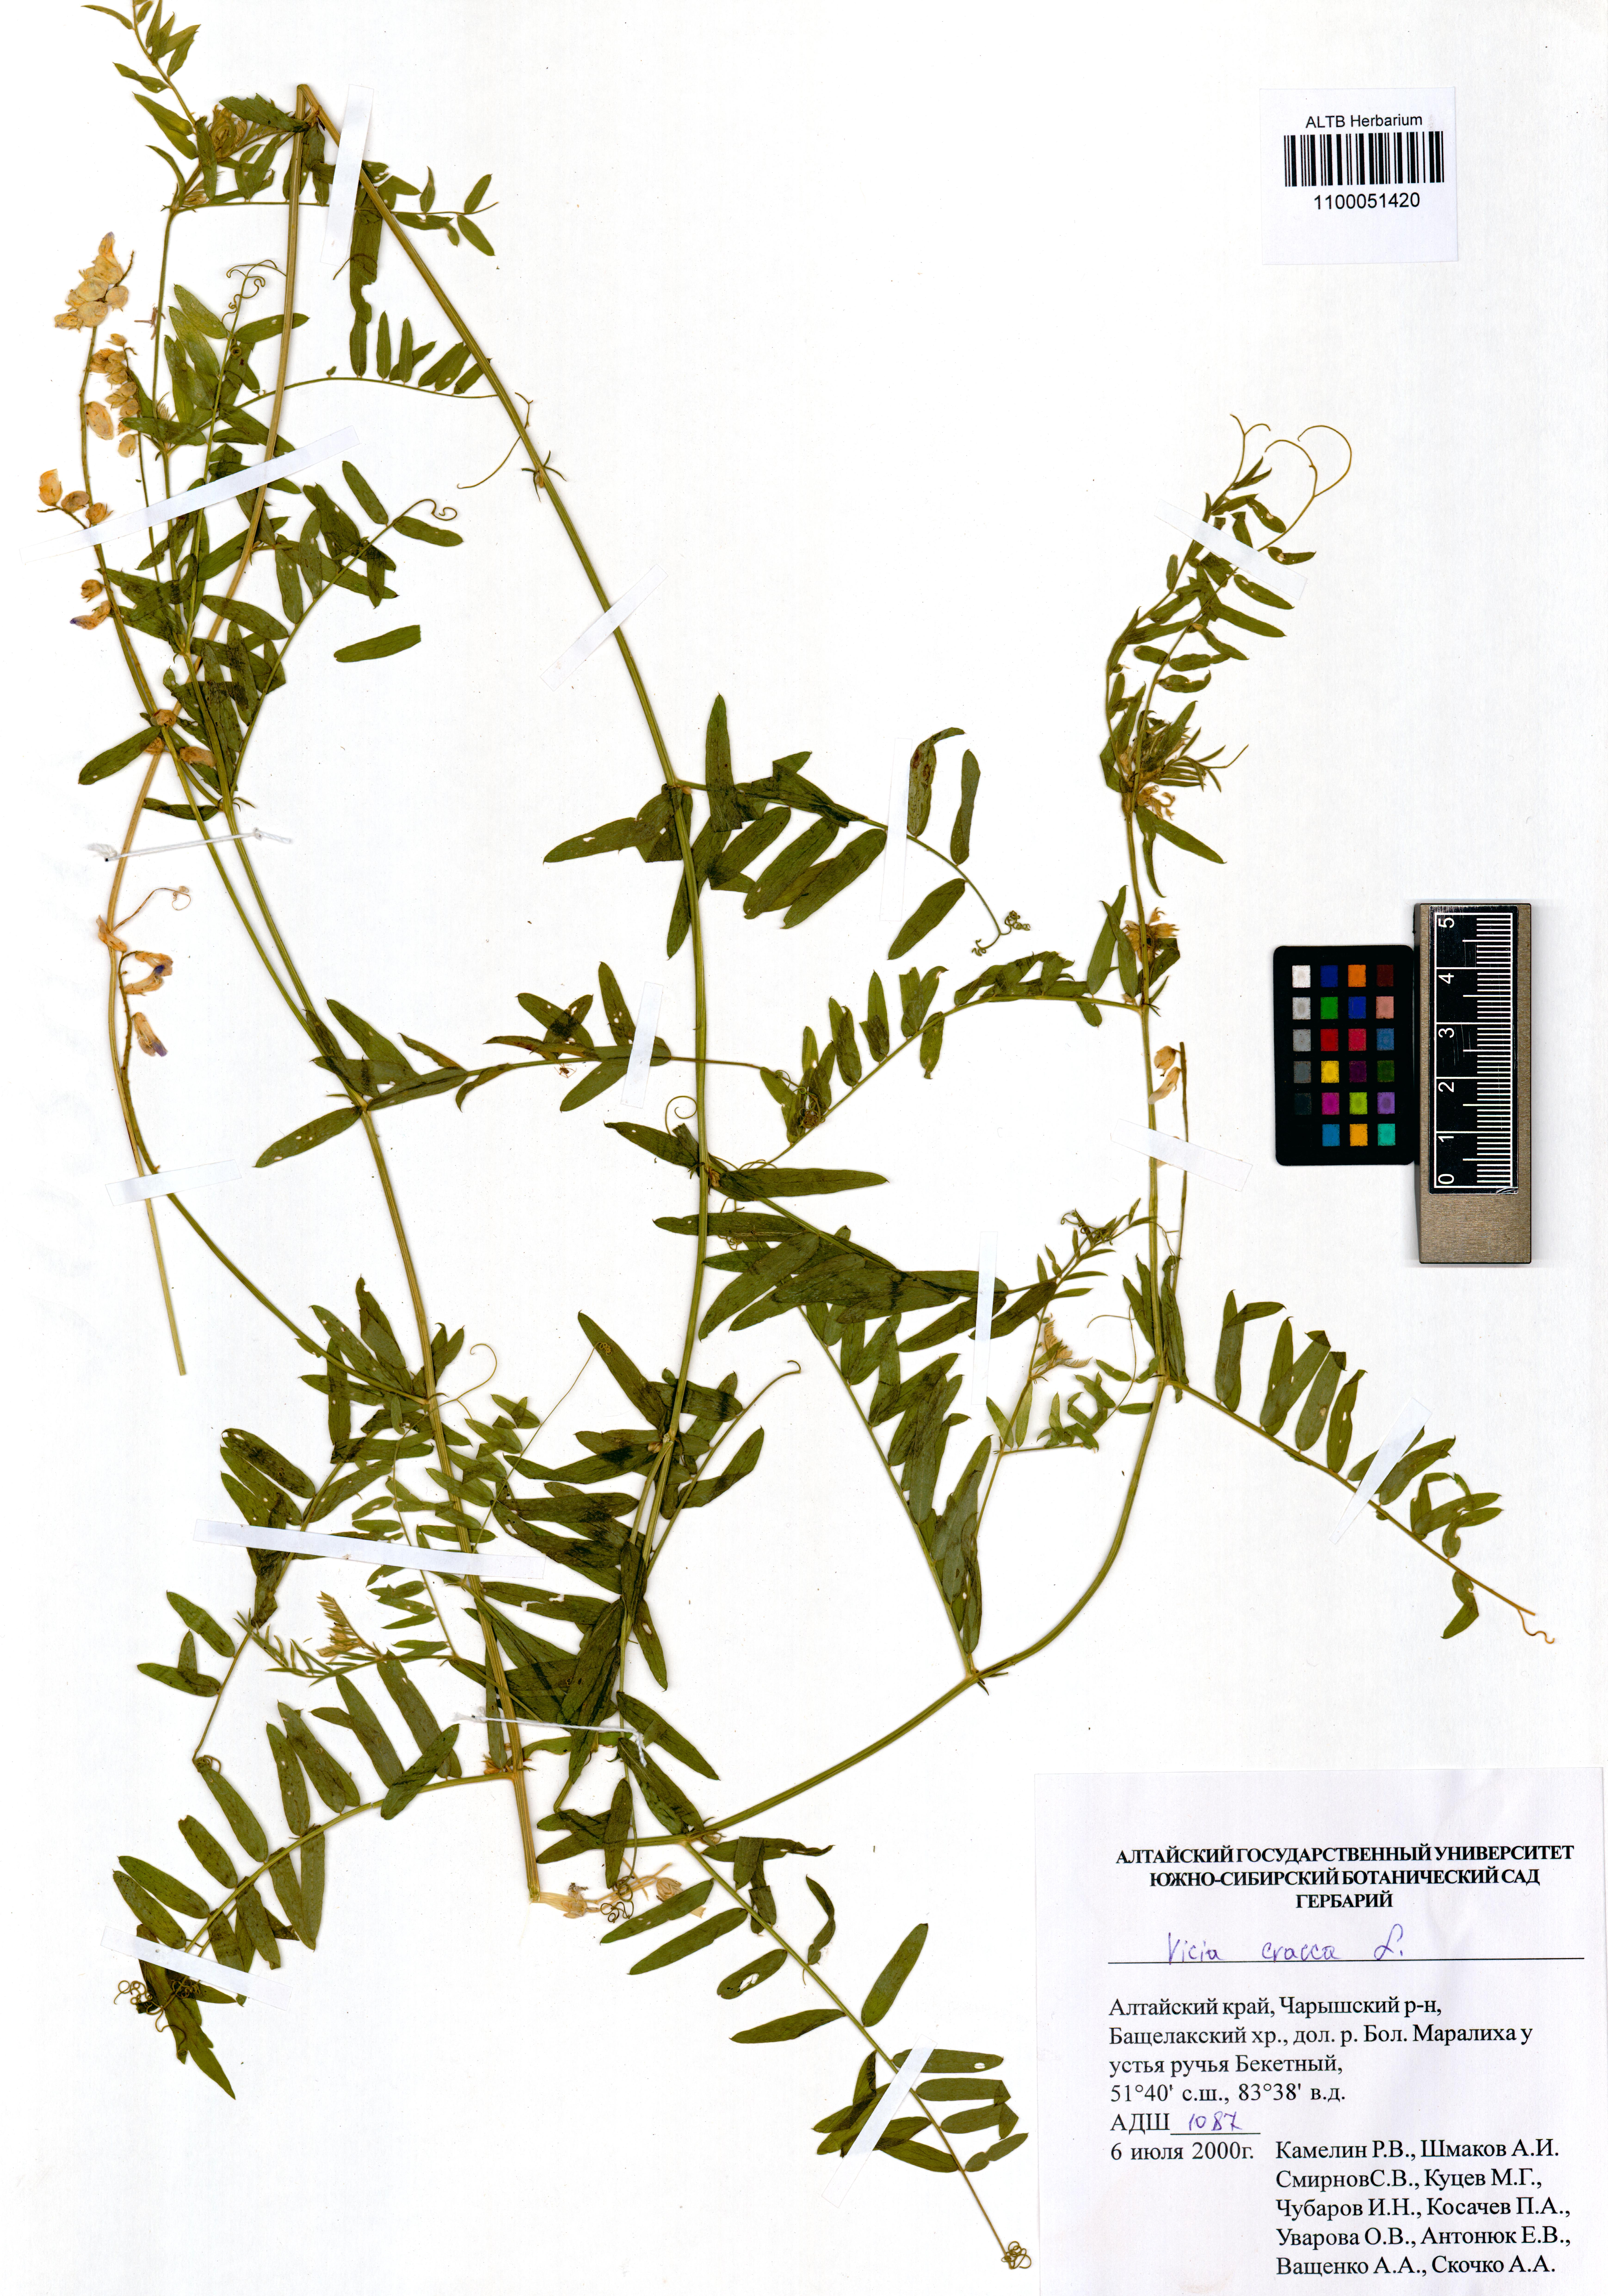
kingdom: Plantae
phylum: Tracheophyta
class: Magnoliopsida
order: Fabales
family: Fabaceae
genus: Vicia
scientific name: Vicia cracca
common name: Bird vetch
